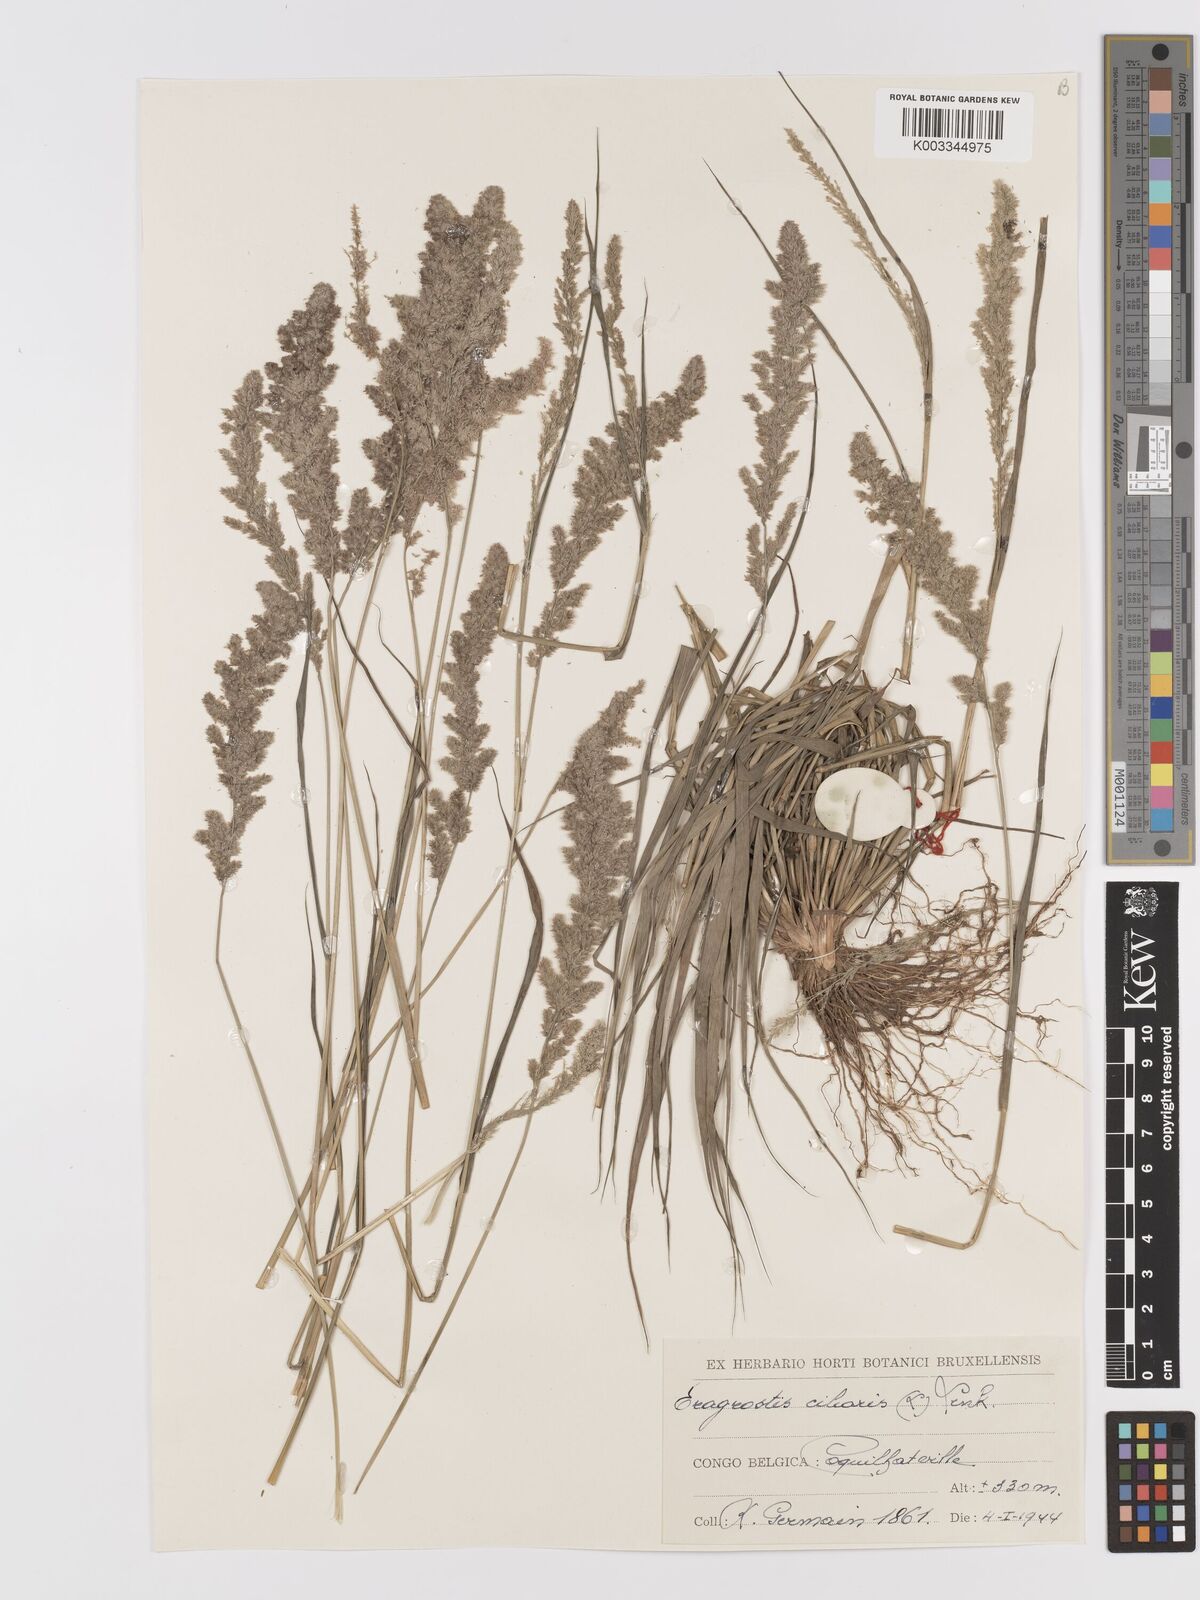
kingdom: Plantae
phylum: Tracheophyta
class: Liliopsida
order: Poales
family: Poaceae
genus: Eragrostis
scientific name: Eragrostis ciliaris
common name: Gophertail lovegrass
